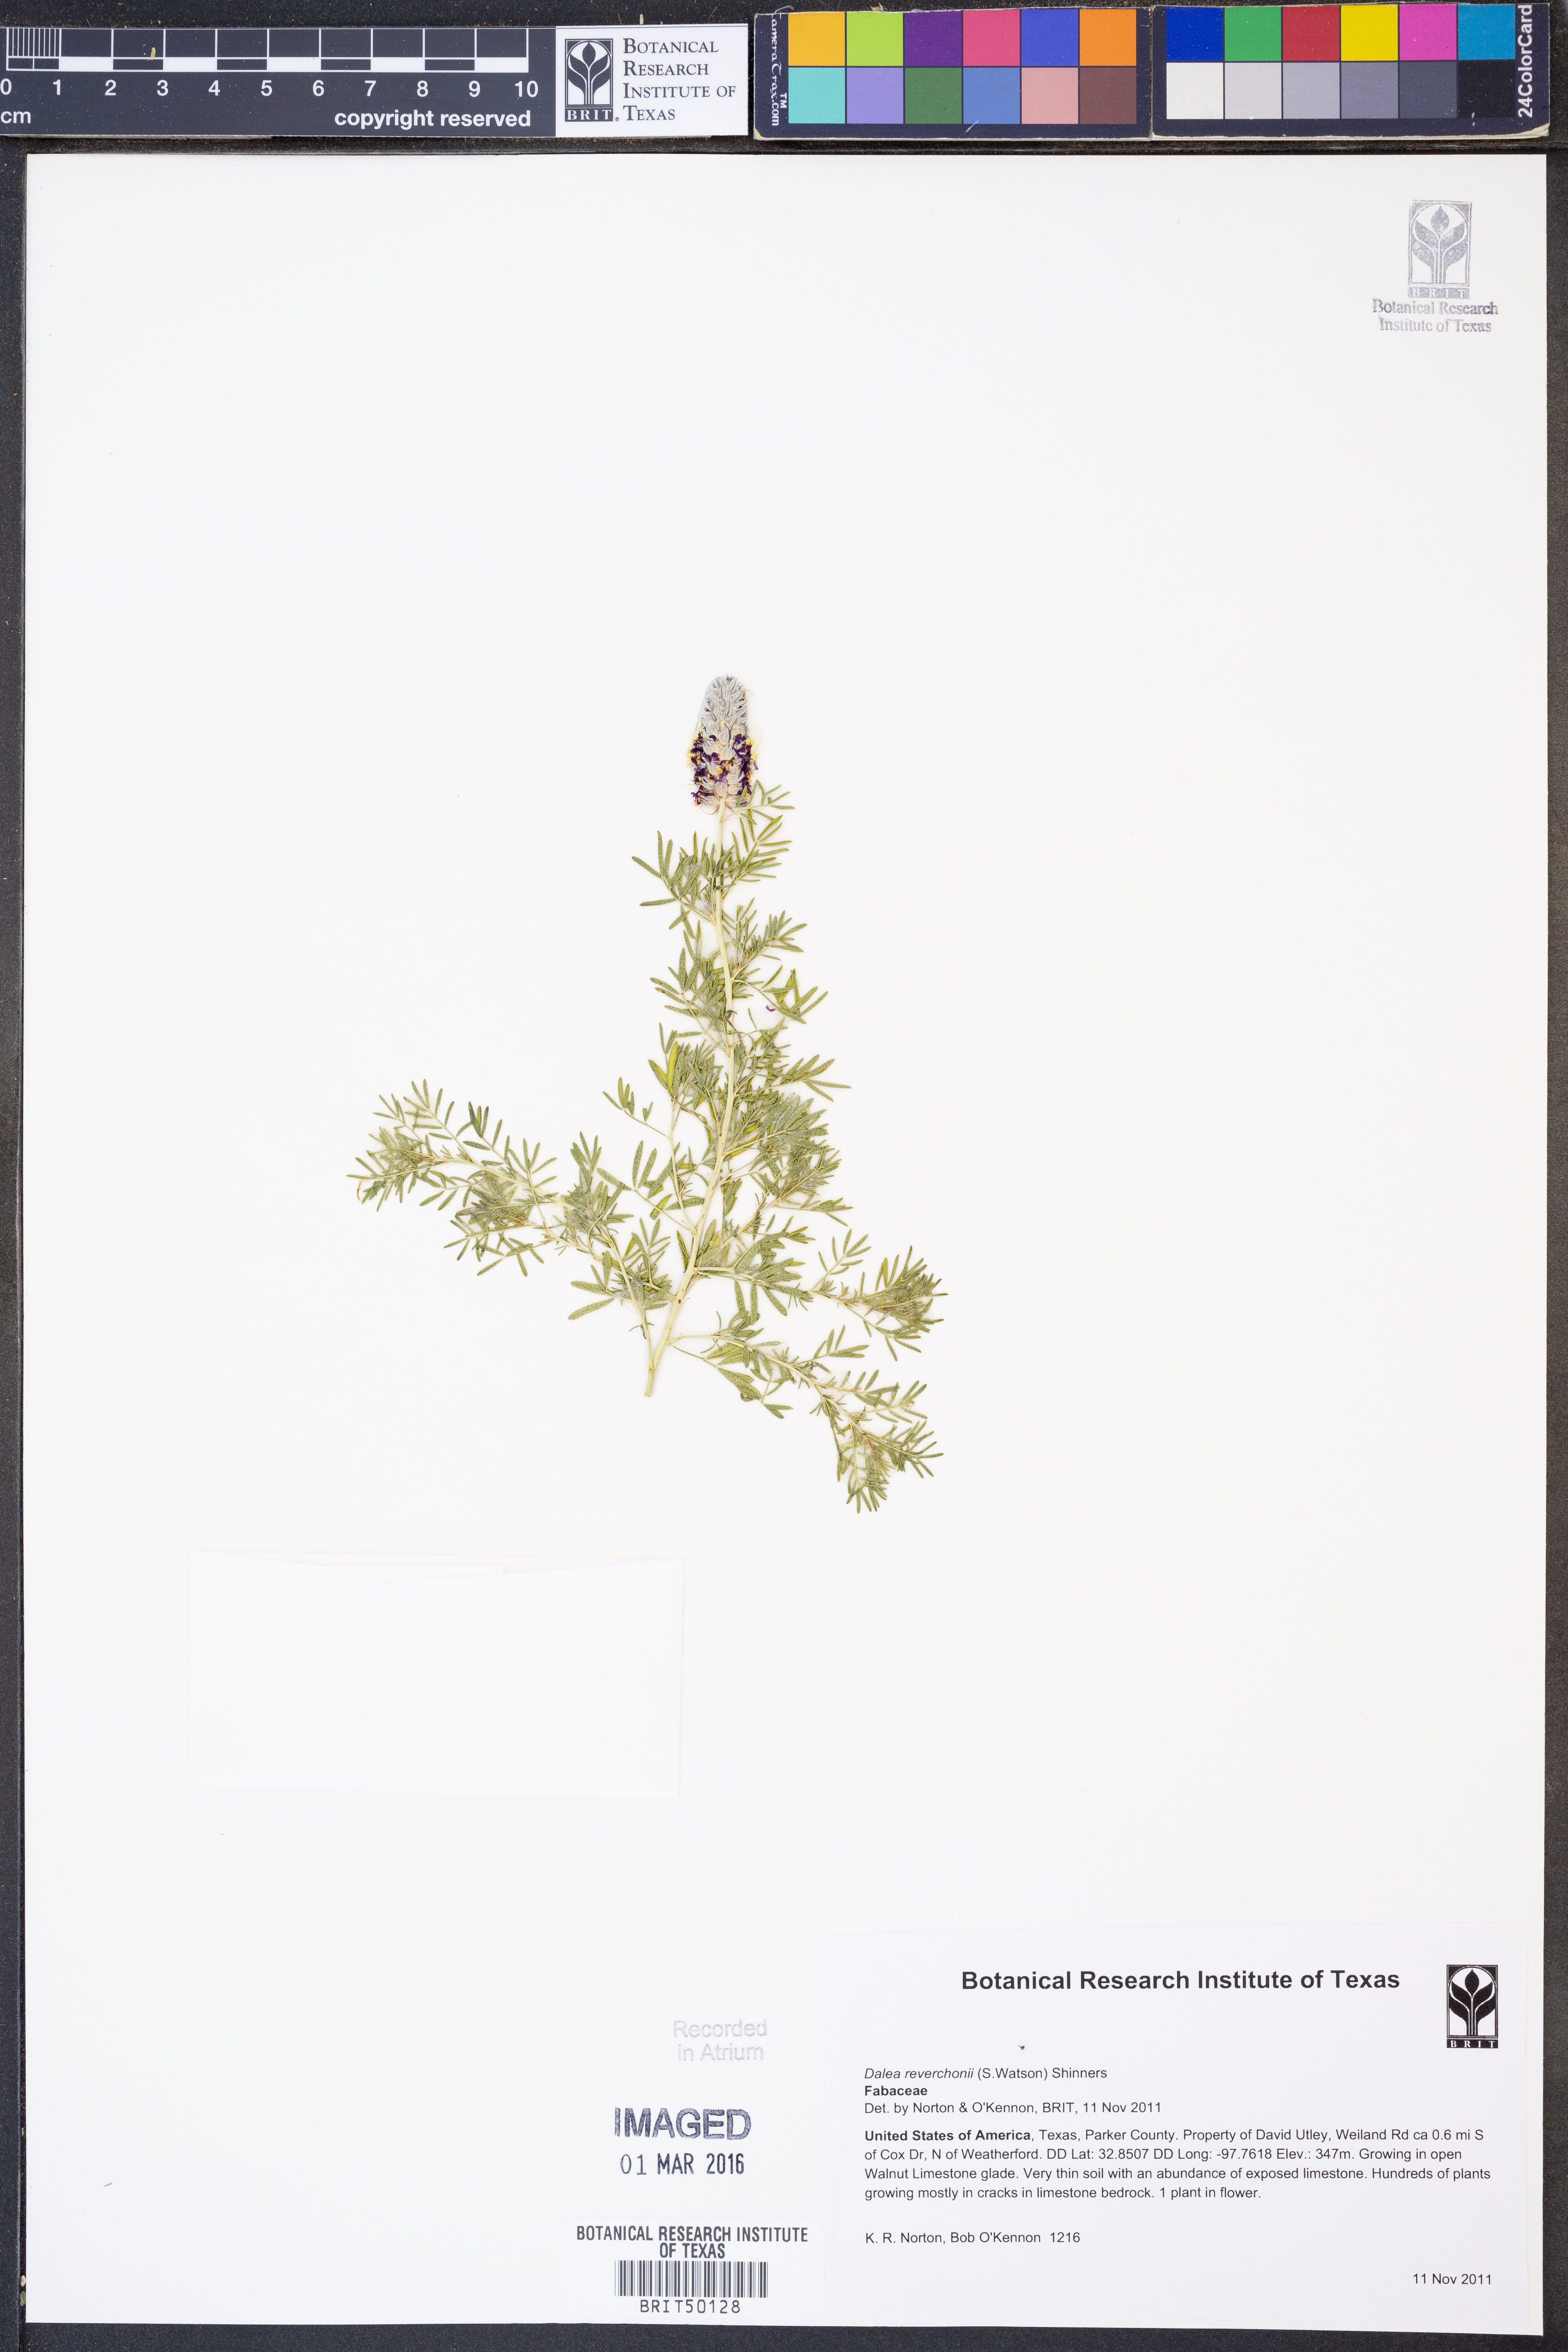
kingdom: Plantae
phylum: Tracheophyta
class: Magnoliopsida
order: Fabales
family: Fabaceae
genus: Dalea
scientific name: Dalea reverchonii
